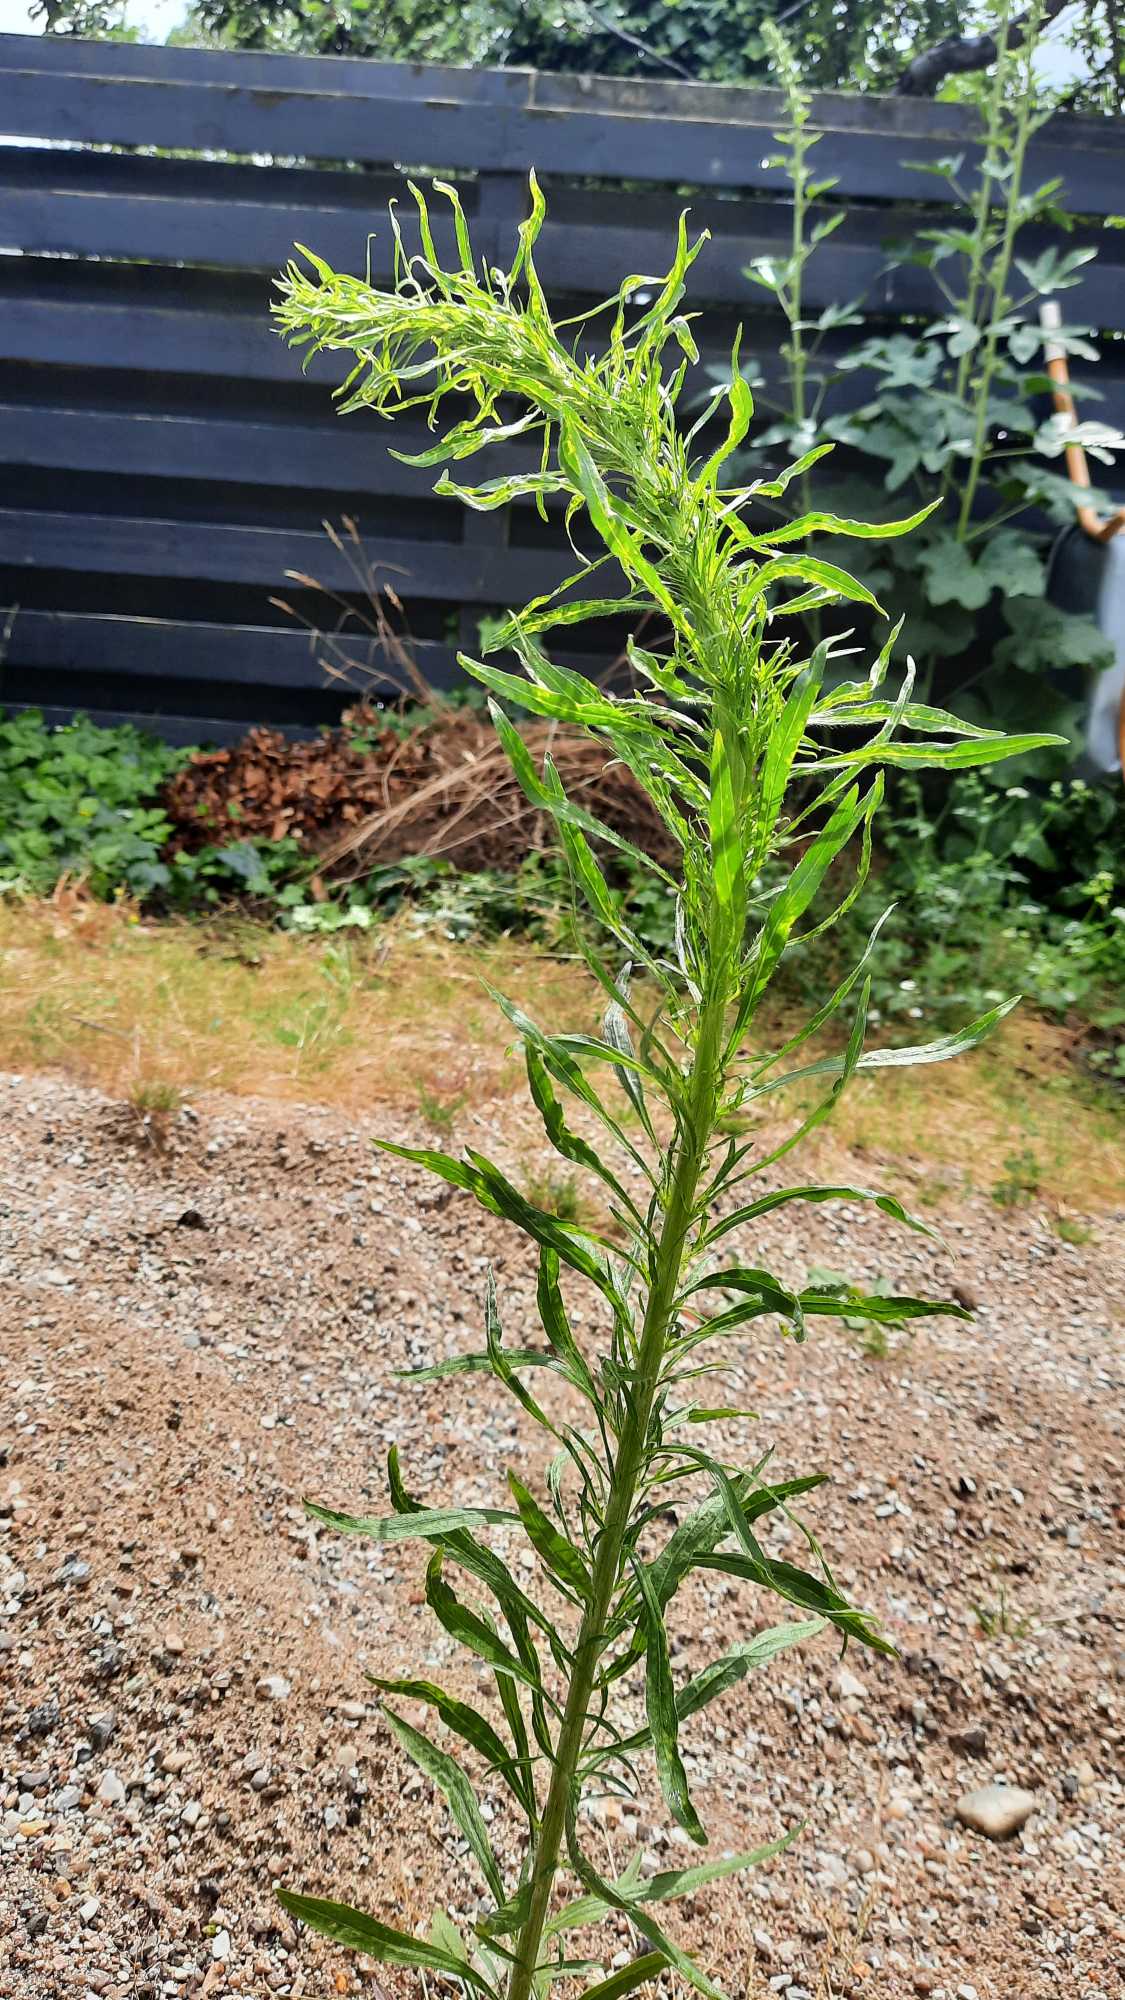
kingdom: Plantae
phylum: Tracheophyta
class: Magnoliopsida
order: Asterales
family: Asteraceae
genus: Erigeron
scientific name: Erigeron canadensis
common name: Kanadisk bakkestjerne
